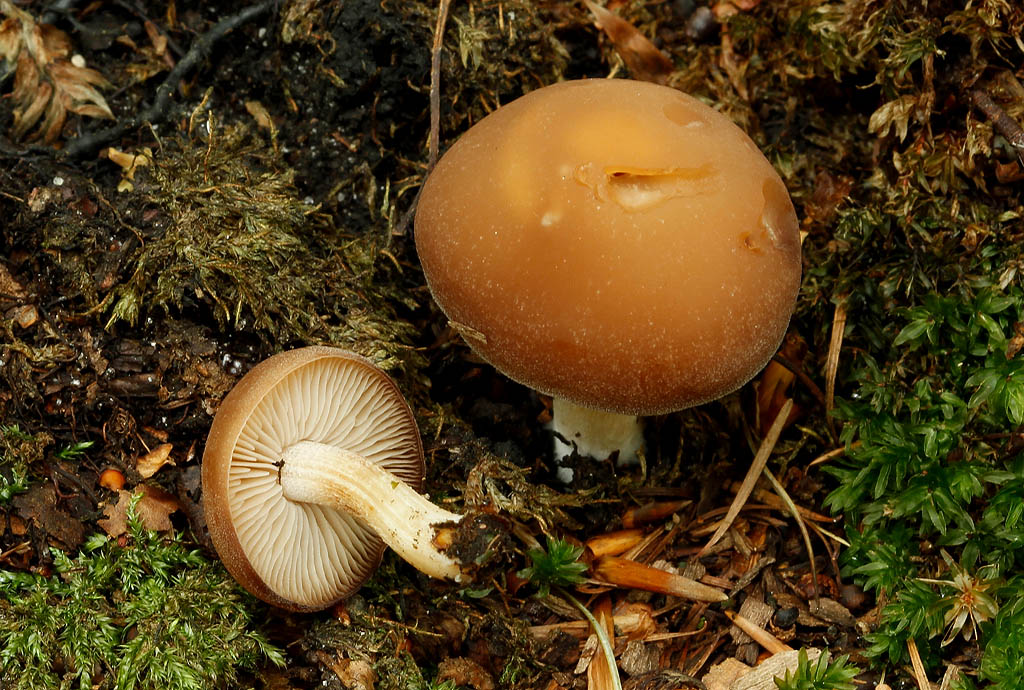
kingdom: Fungi
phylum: Basidiomycota
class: Agaricomycetes
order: Agaricales
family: Psathyrellaceae
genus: Homophron
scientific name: Homophron spadiceum
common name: daddelbrun mørkhat
